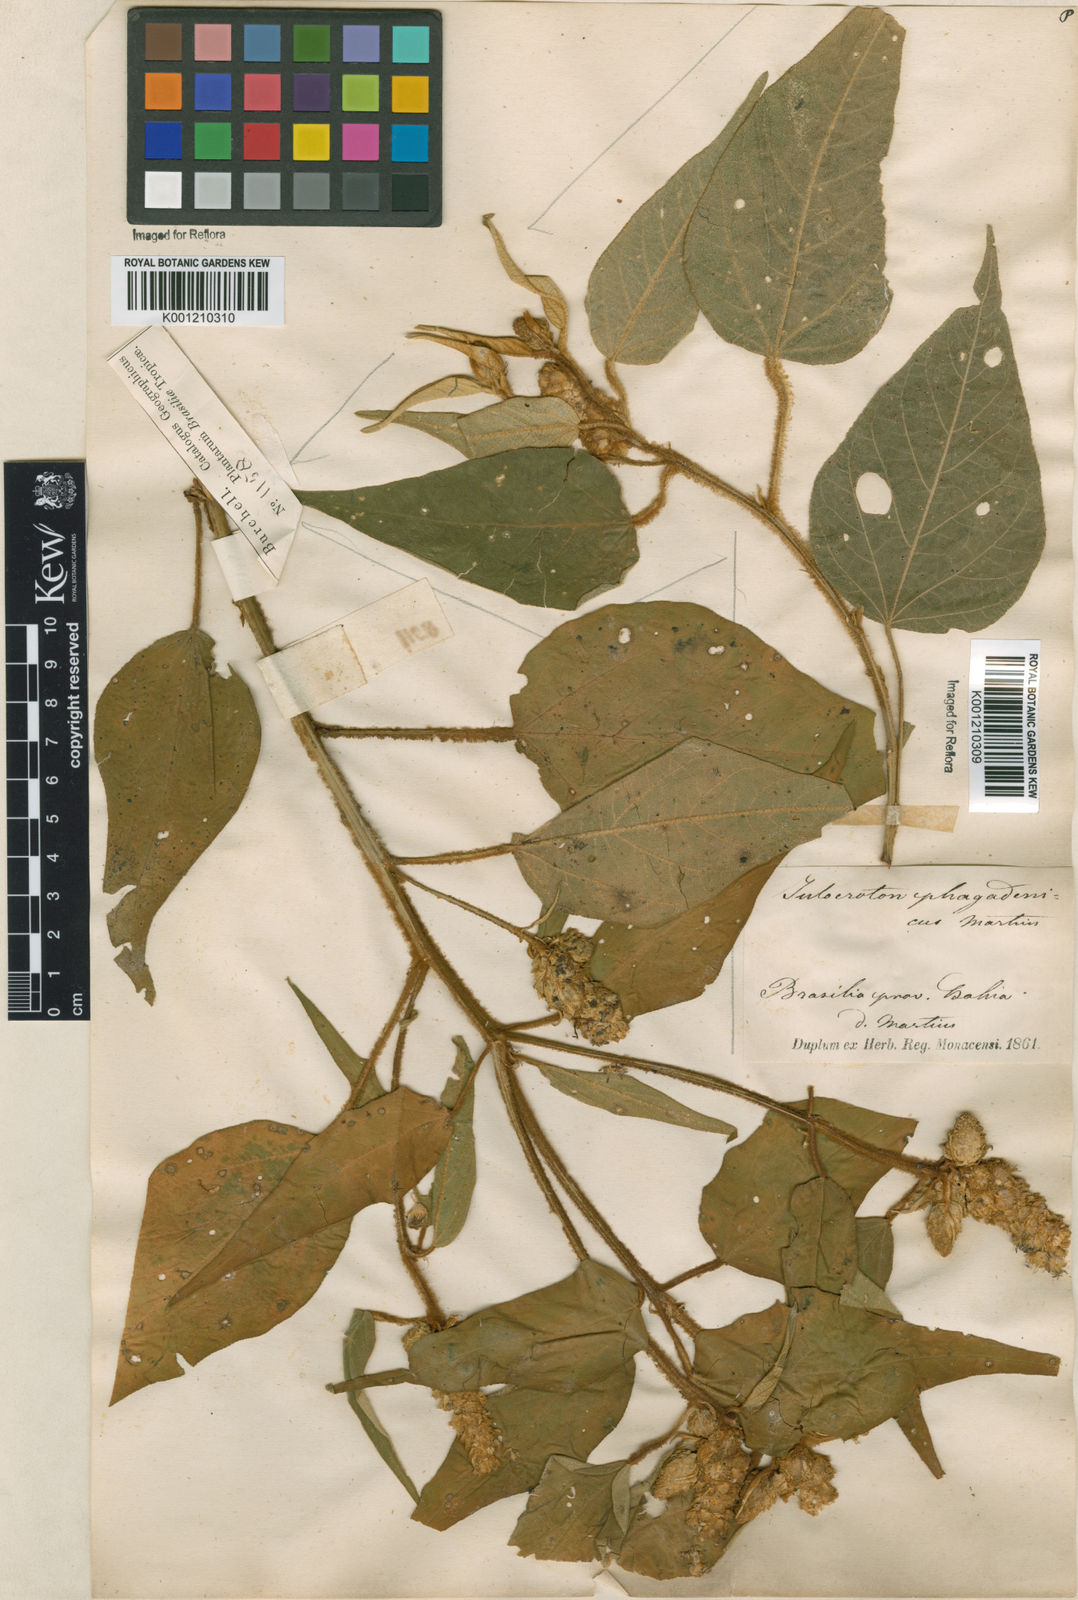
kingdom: Plantae
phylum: Tracheophyta
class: Magnoliopsida
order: Malpighiales
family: Euphorbiaceae
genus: Croton
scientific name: Croton triqueter
